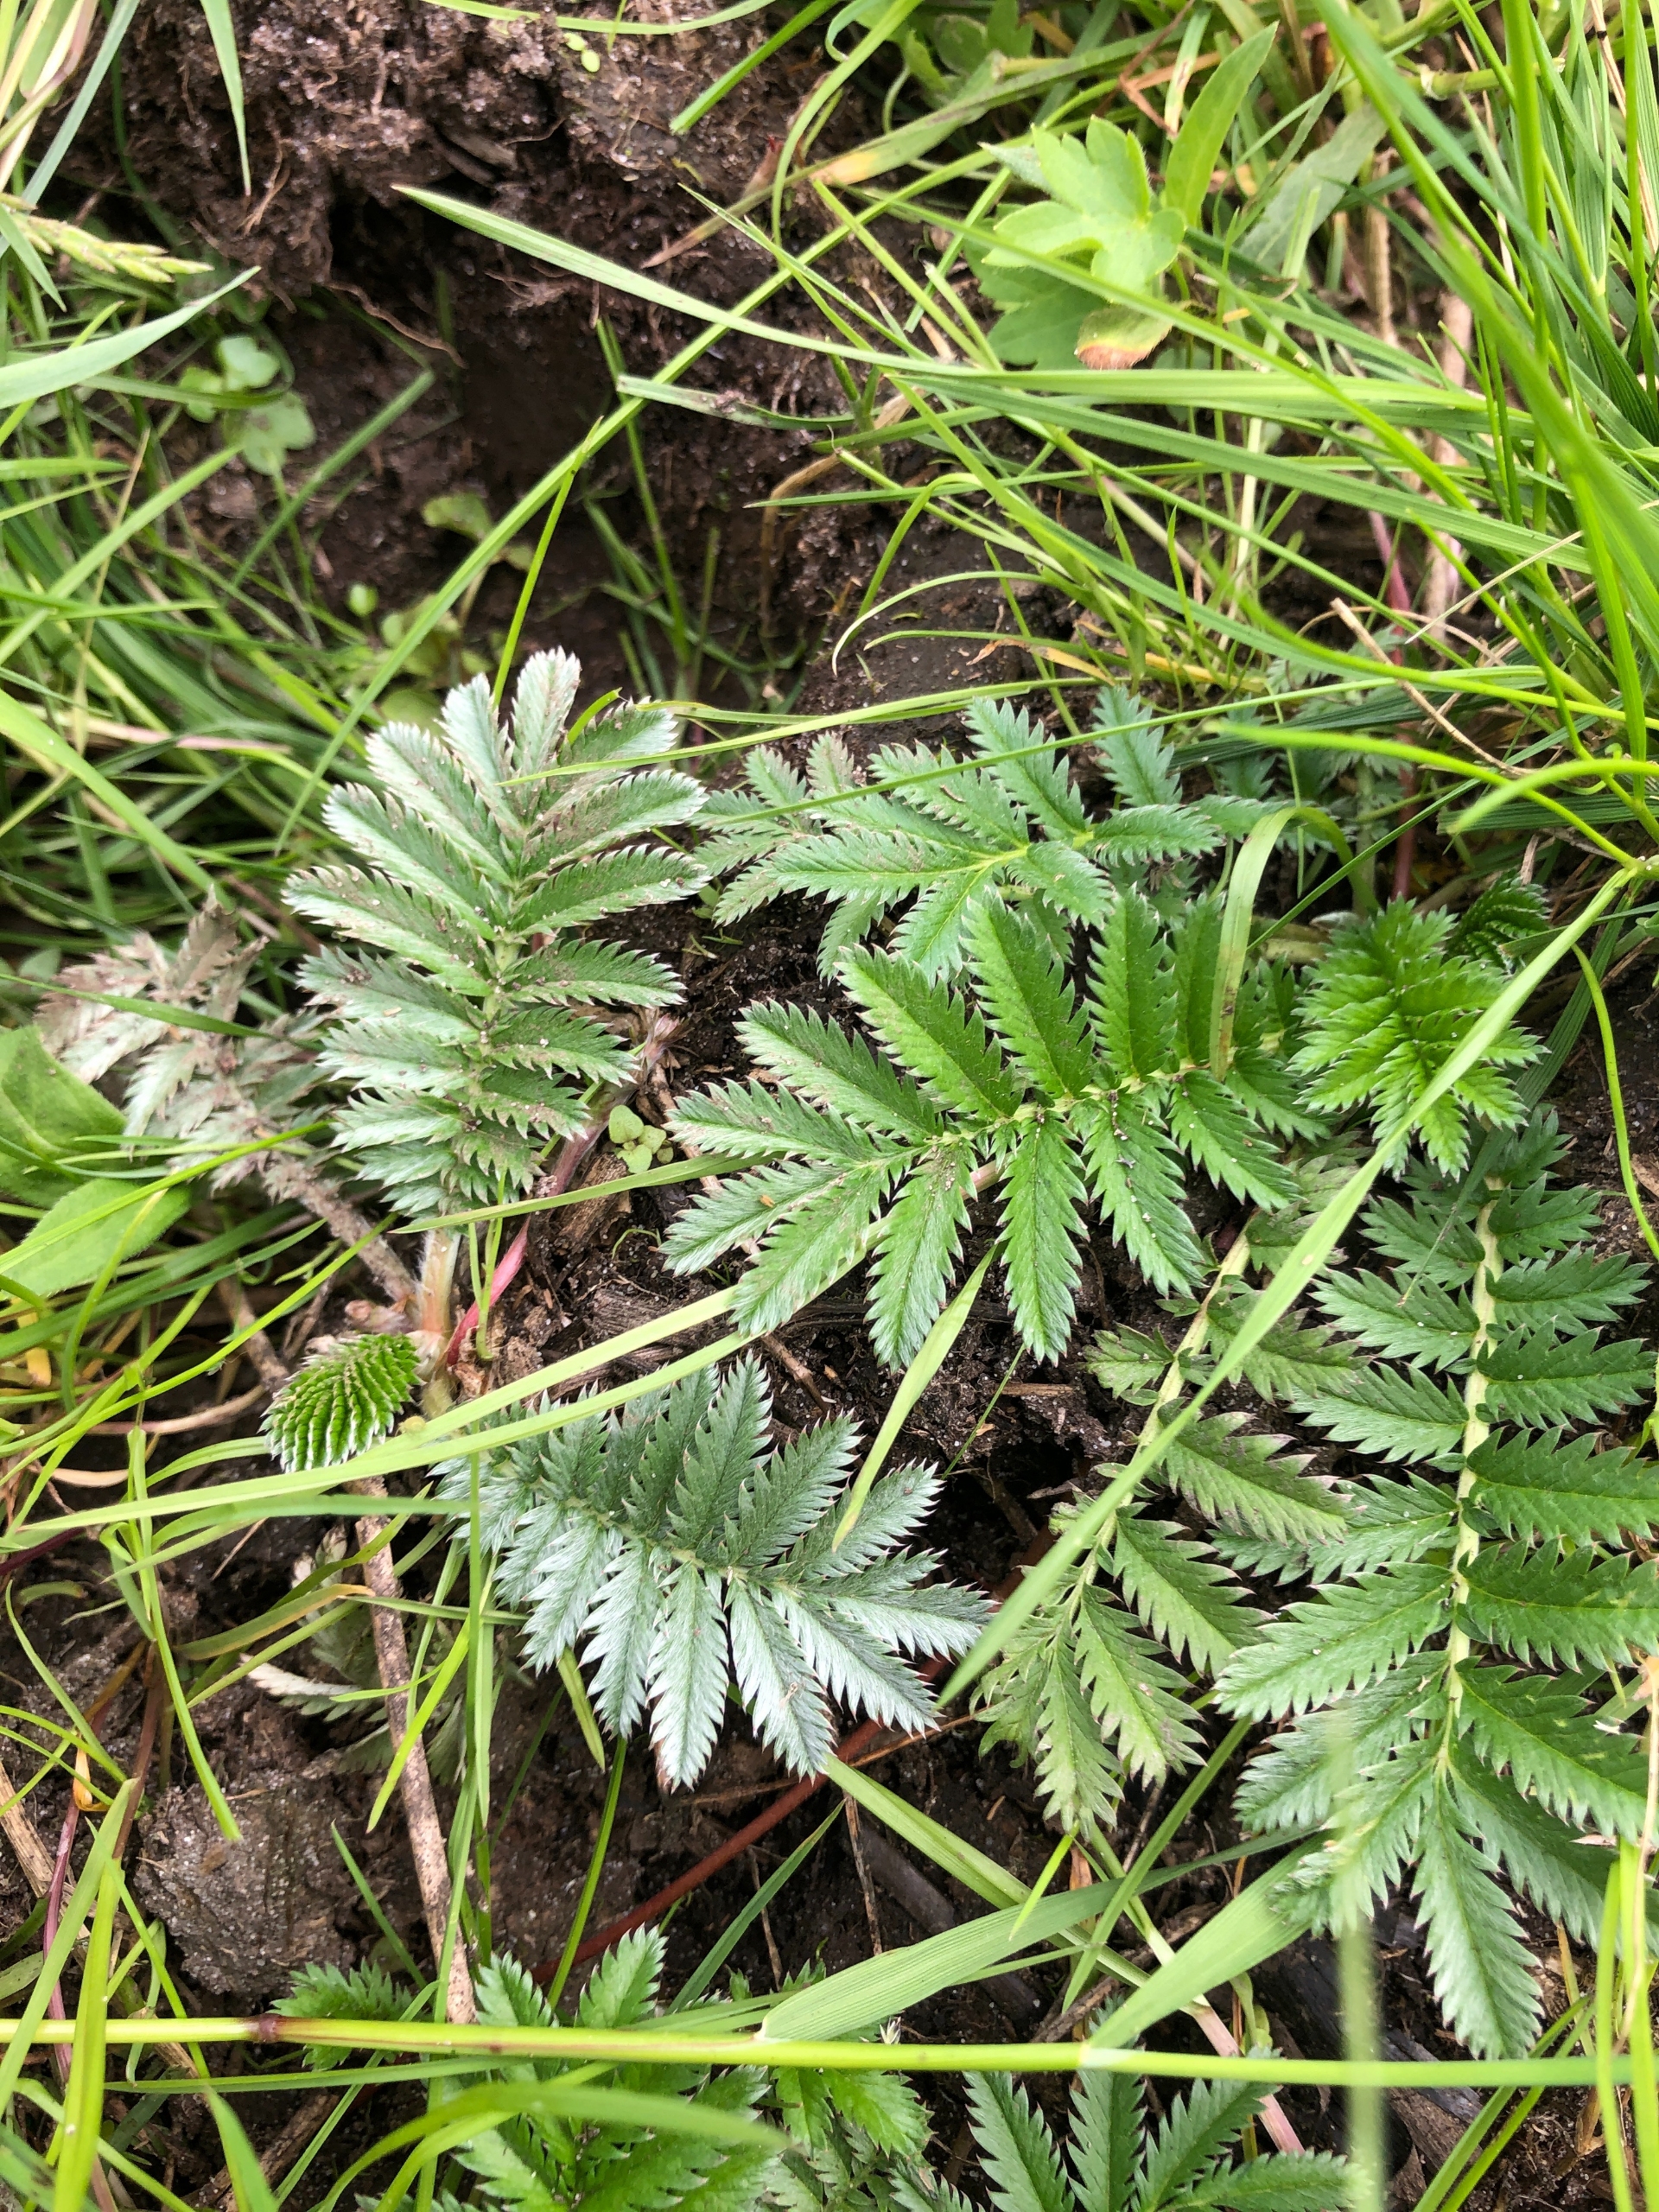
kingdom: Plantae
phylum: Tracheophyta
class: Magnoliopsida
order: Rosales
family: Rosaceae
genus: Argentina
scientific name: Argentina anserina
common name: Gåsepotentil
